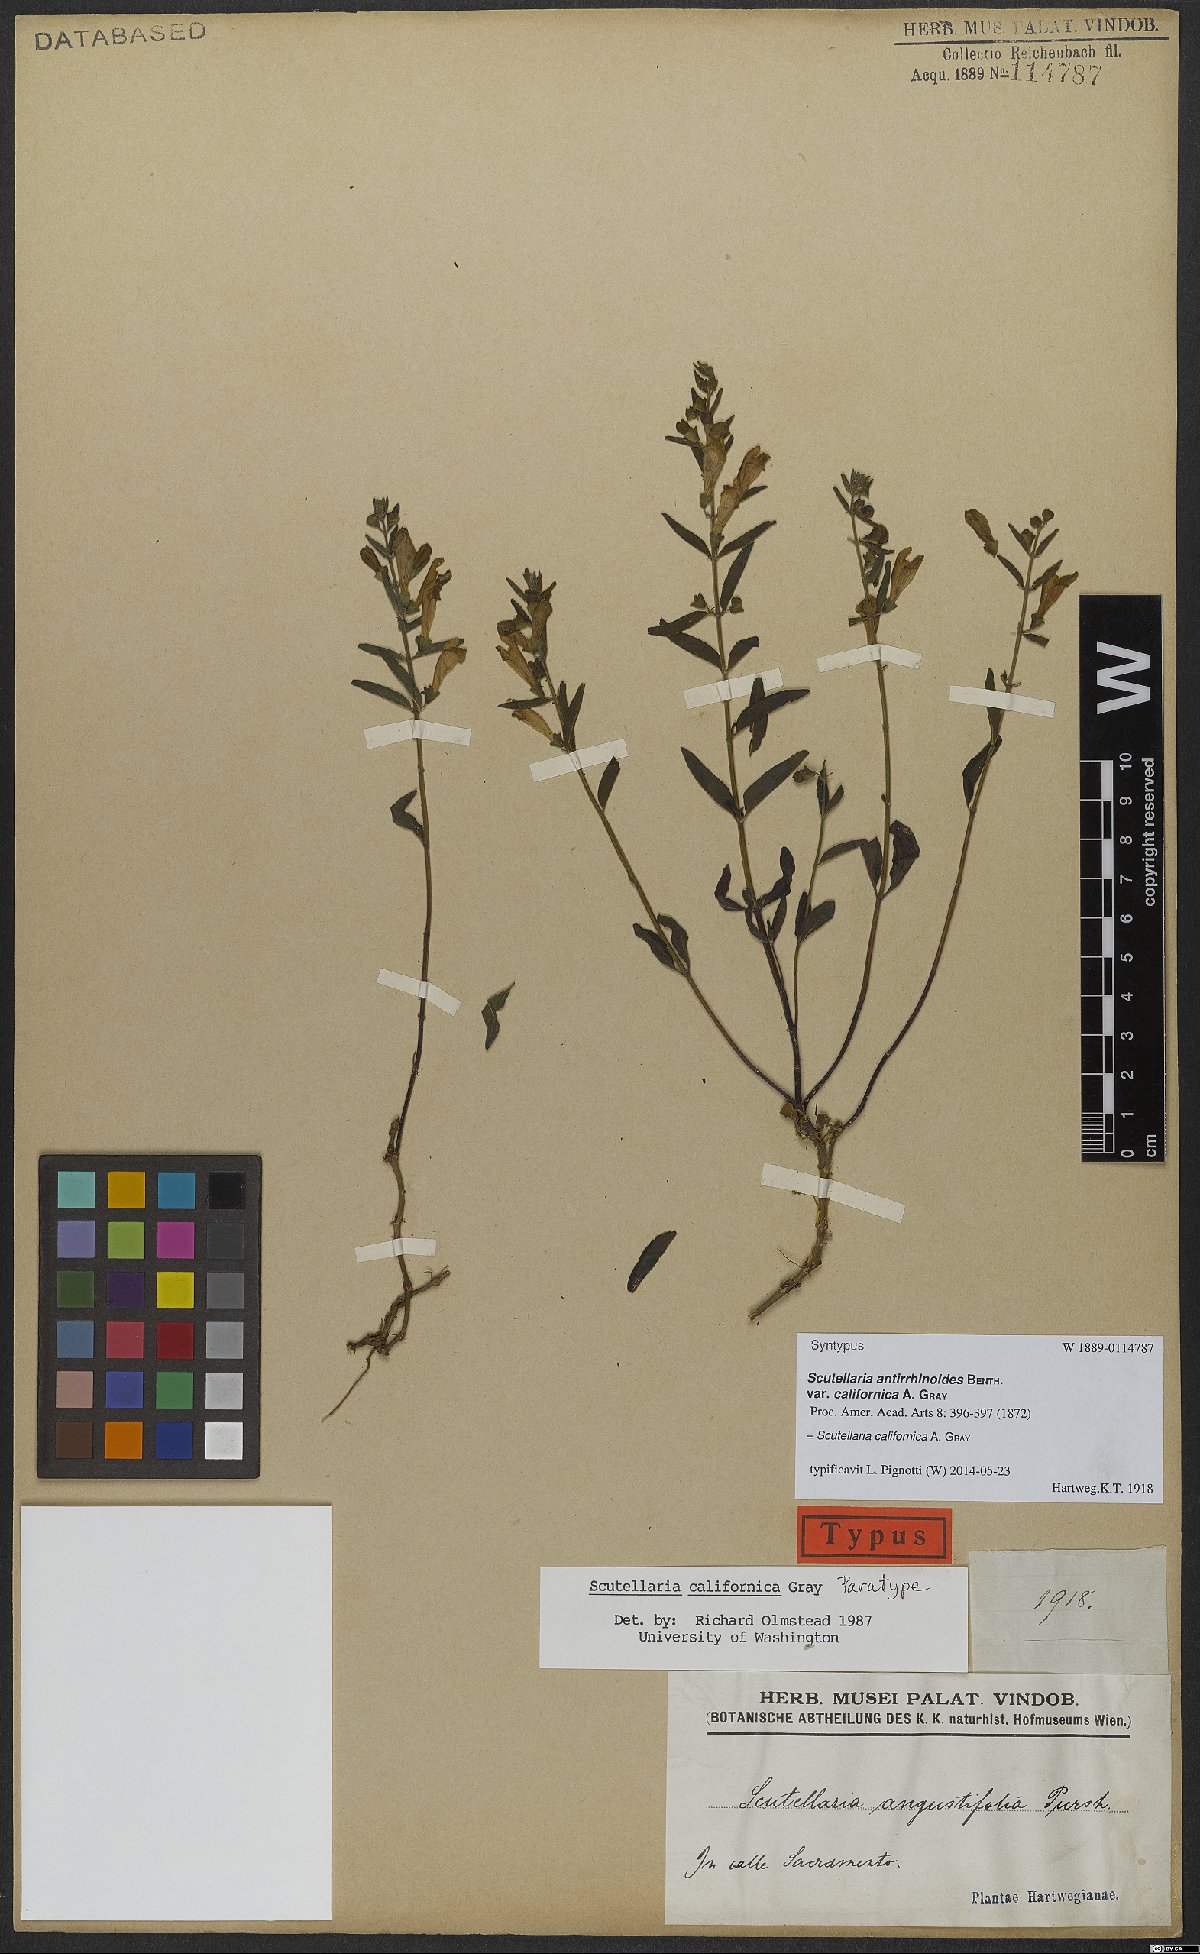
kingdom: Plantae
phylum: Tracheophyta
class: Magnoliopsida
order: Lamiales
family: Lamiaceae
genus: Scutellaria
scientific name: Scutellaria californica
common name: California scullcap
